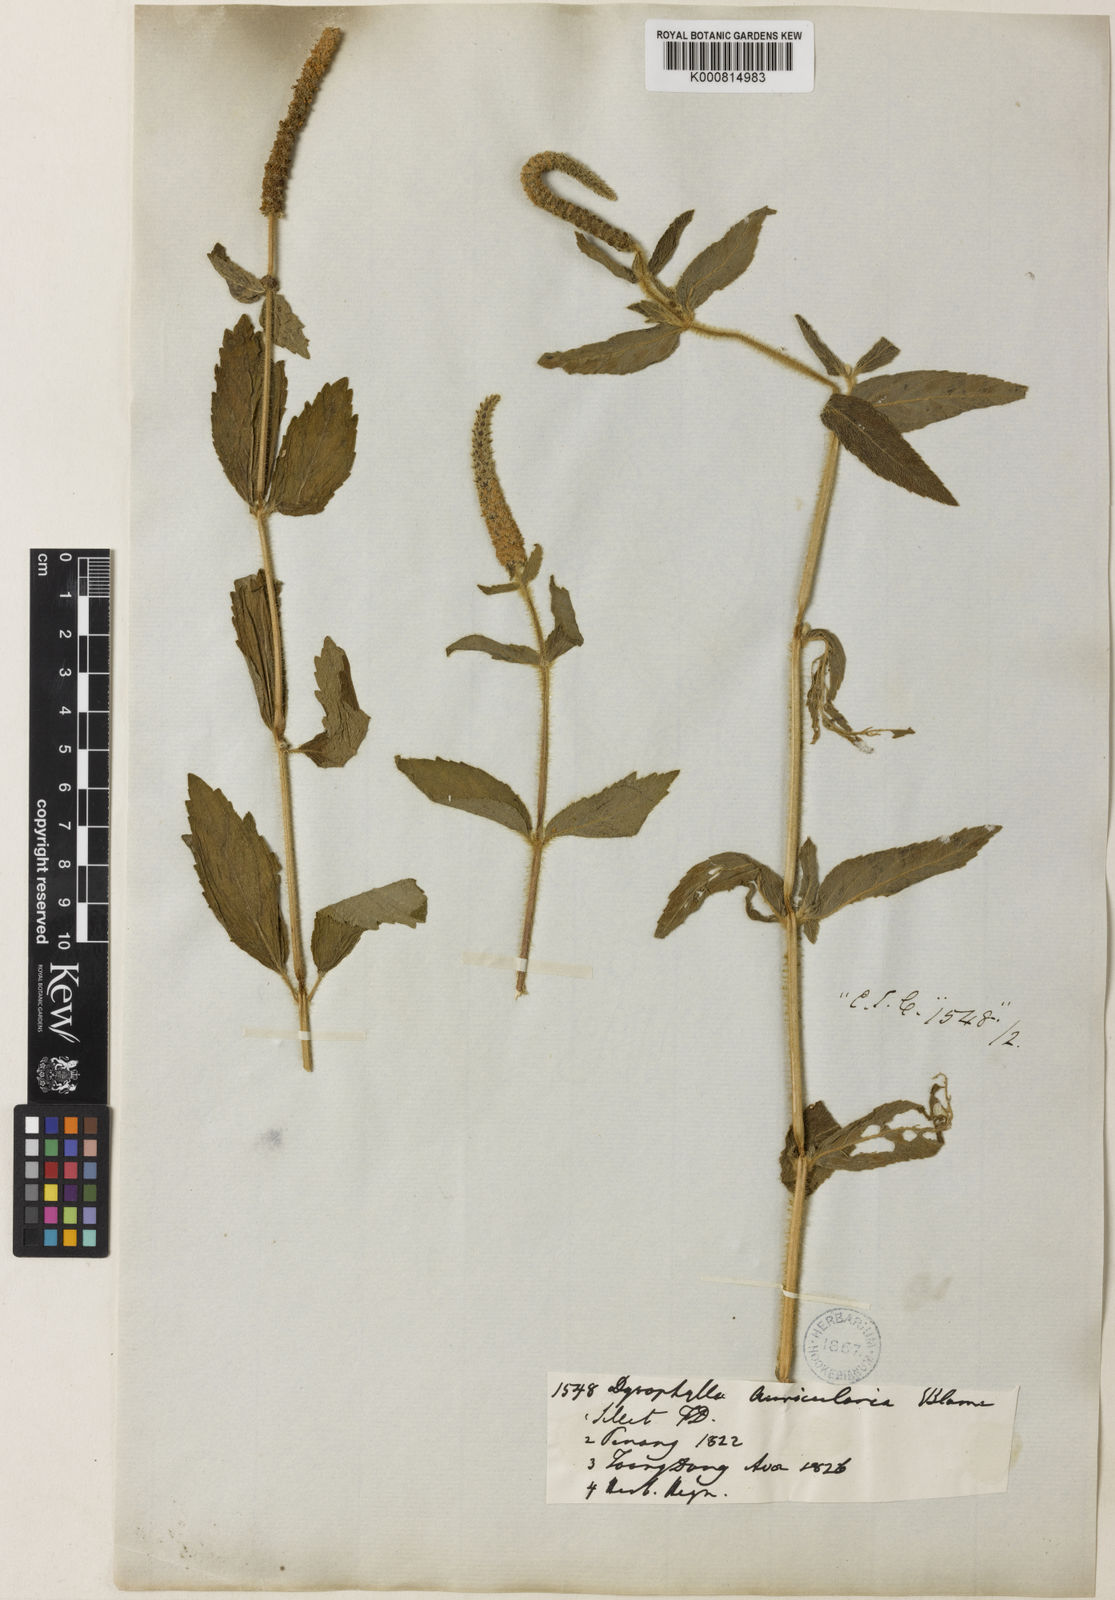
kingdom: Plantae
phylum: Tracheophyta
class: Magnoliopsida
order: Lamiales
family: Lamiaceae
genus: Pogostemon
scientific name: Pogostemon auricularius
